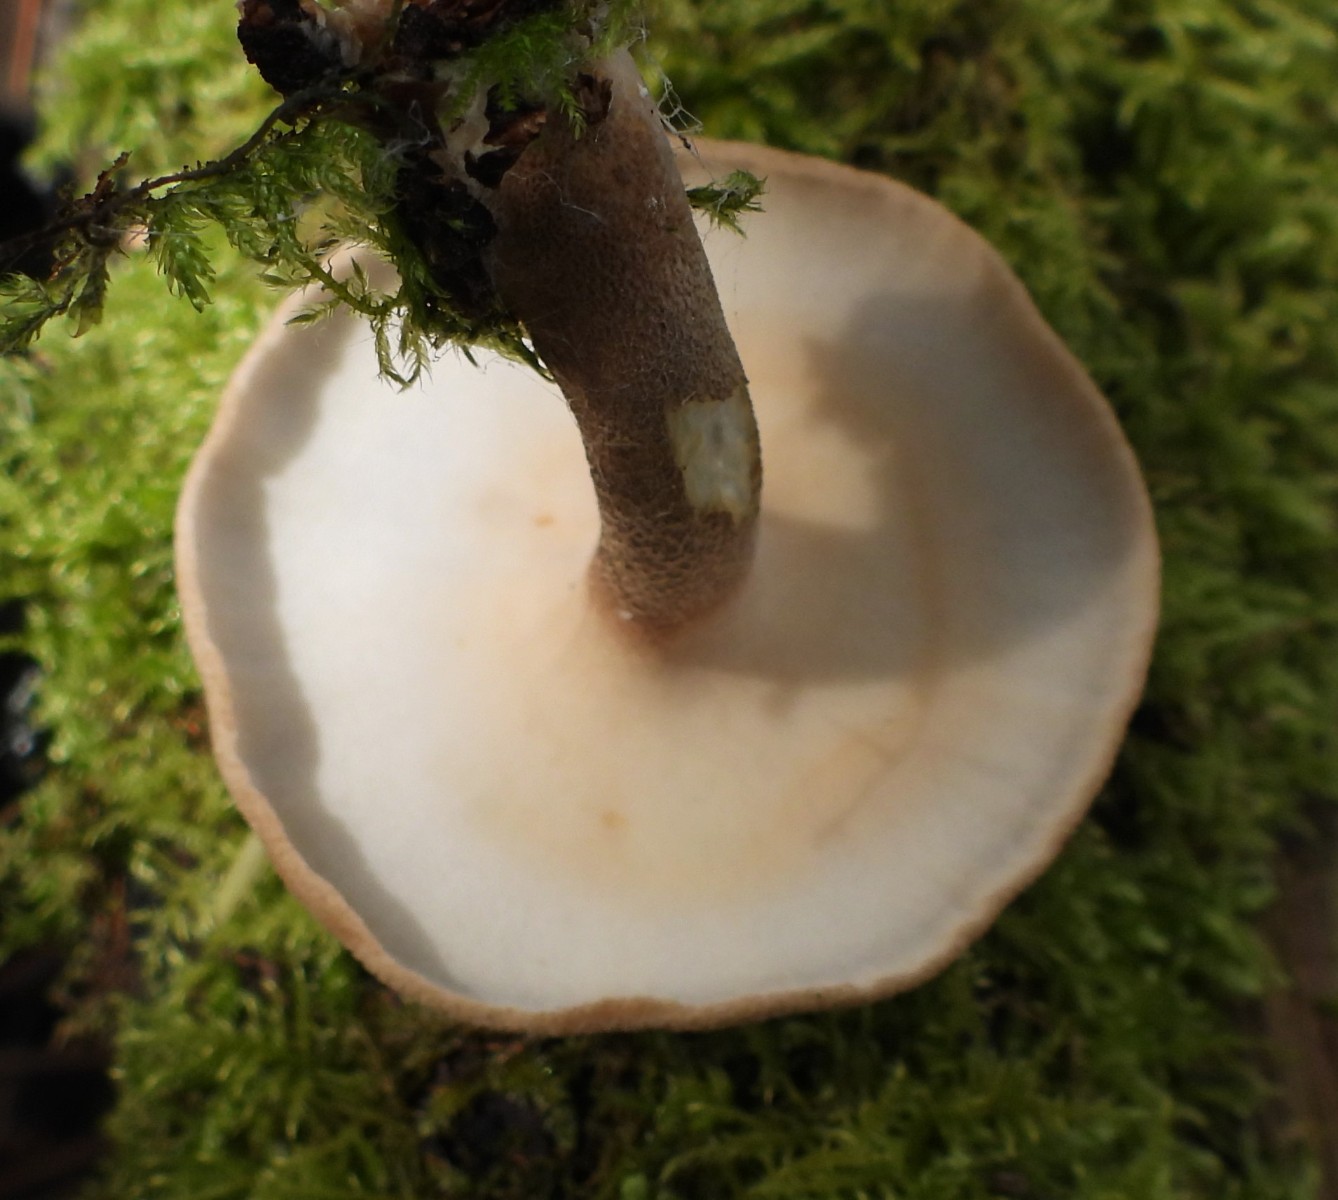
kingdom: Fungi
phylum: Basidiomycota
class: Agaricomycetes
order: Polyporales
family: Polyporaceae
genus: Lentinus
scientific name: Lentinus substrictus
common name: forårs-stilkporesvamp
